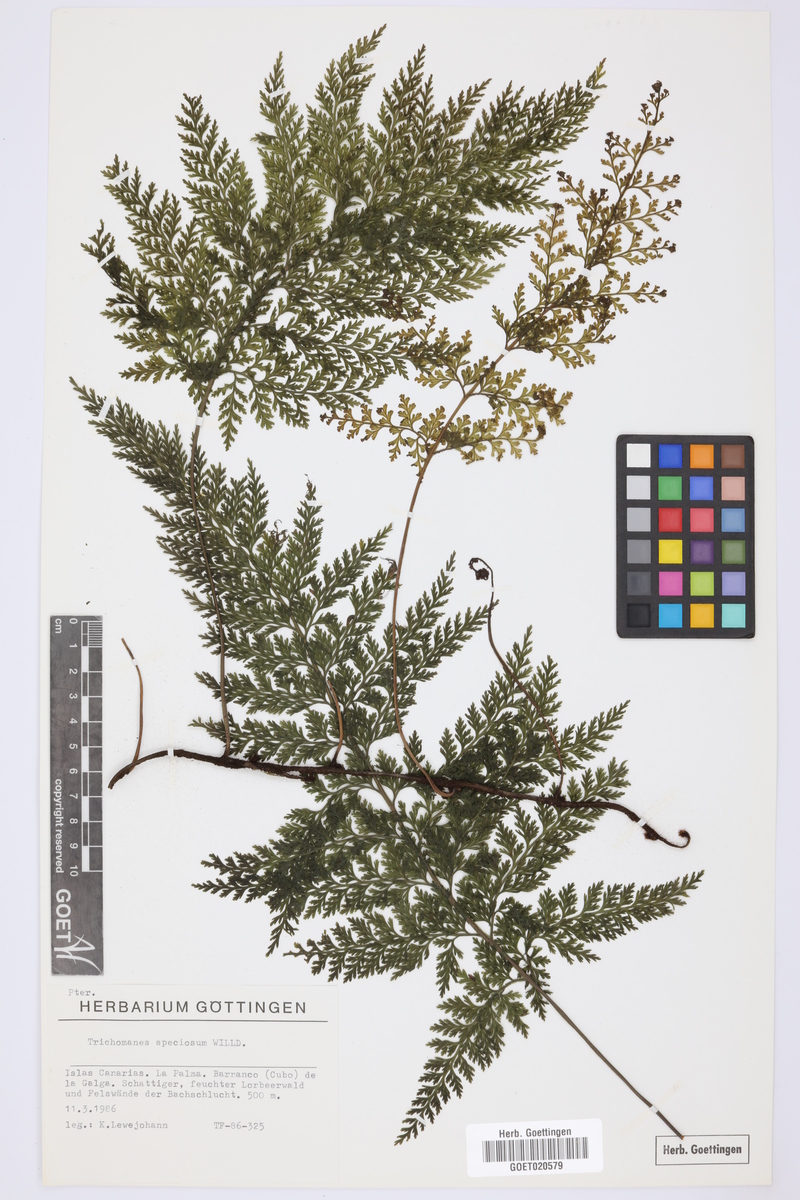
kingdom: Plantae
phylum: Tracheophyta
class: Polypodiopsida
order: Hymenophyllales
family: Hymenophyllaceae
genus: Vandenboschia
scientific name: Vandenboschia speciosa
